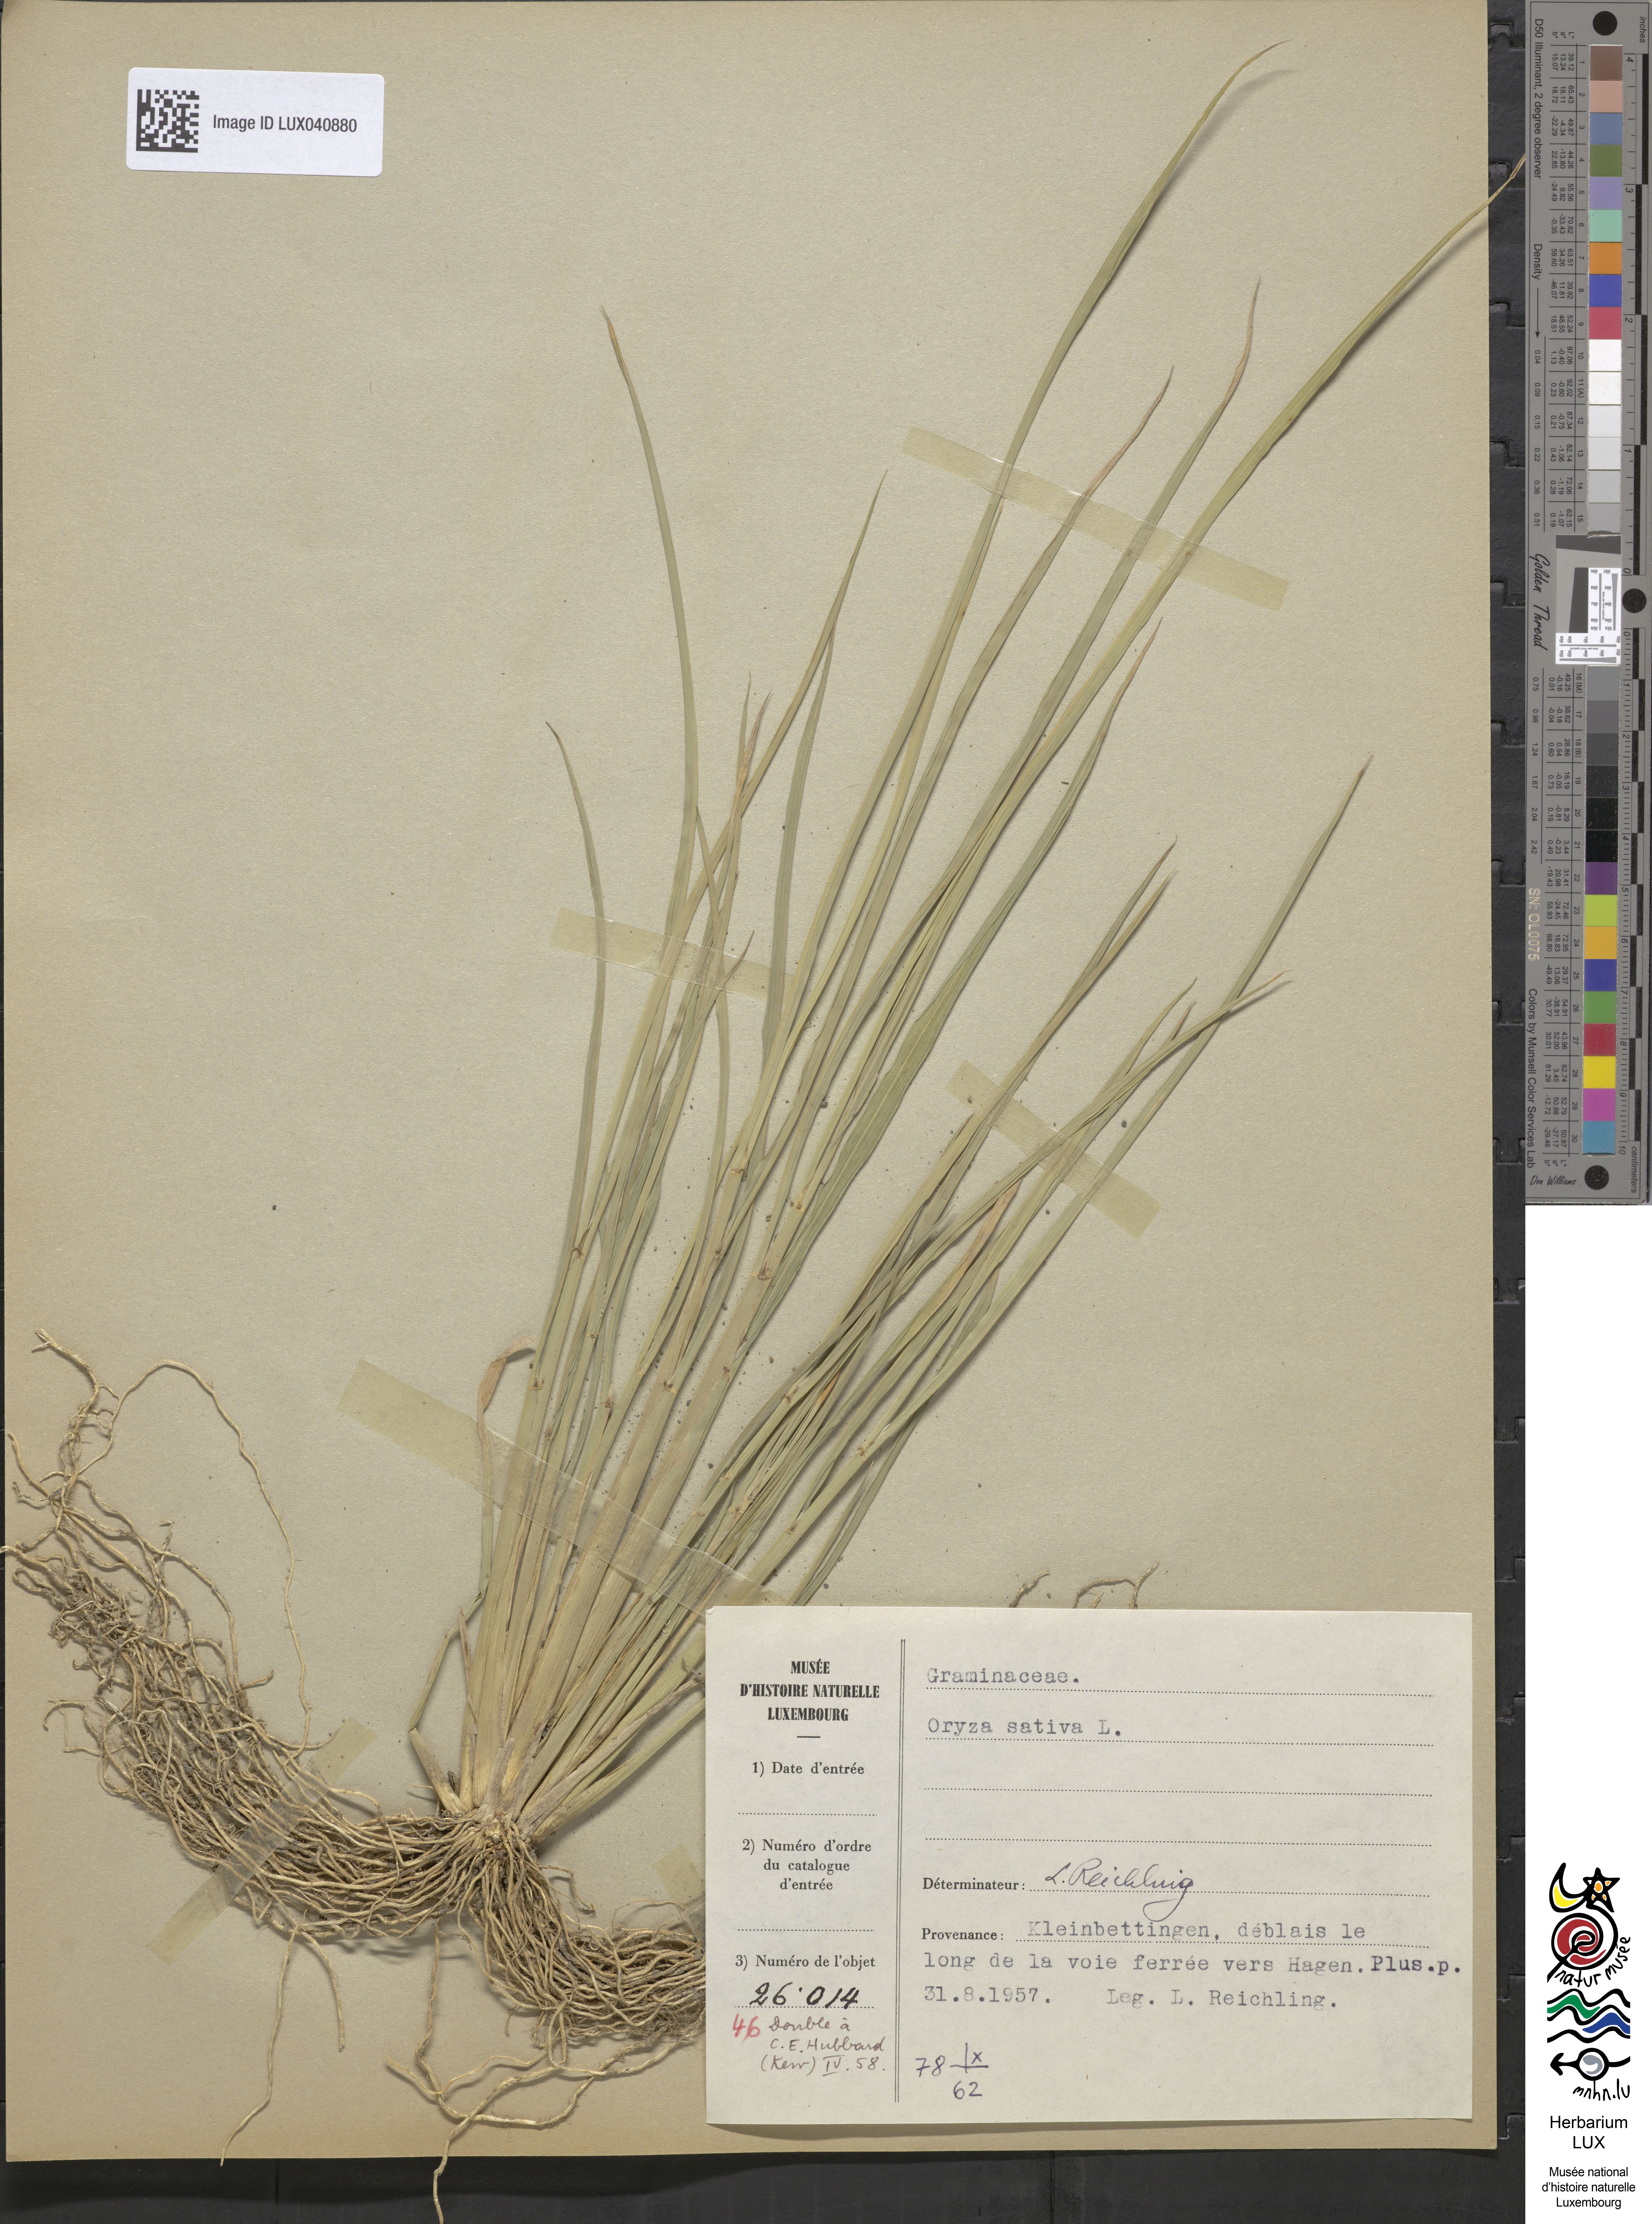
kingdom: Plantae
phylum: Tracheophyta
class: Liliopsida
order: Poales
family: Poaceae
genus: Oryza
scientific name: Oryza sativa
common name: Rice
